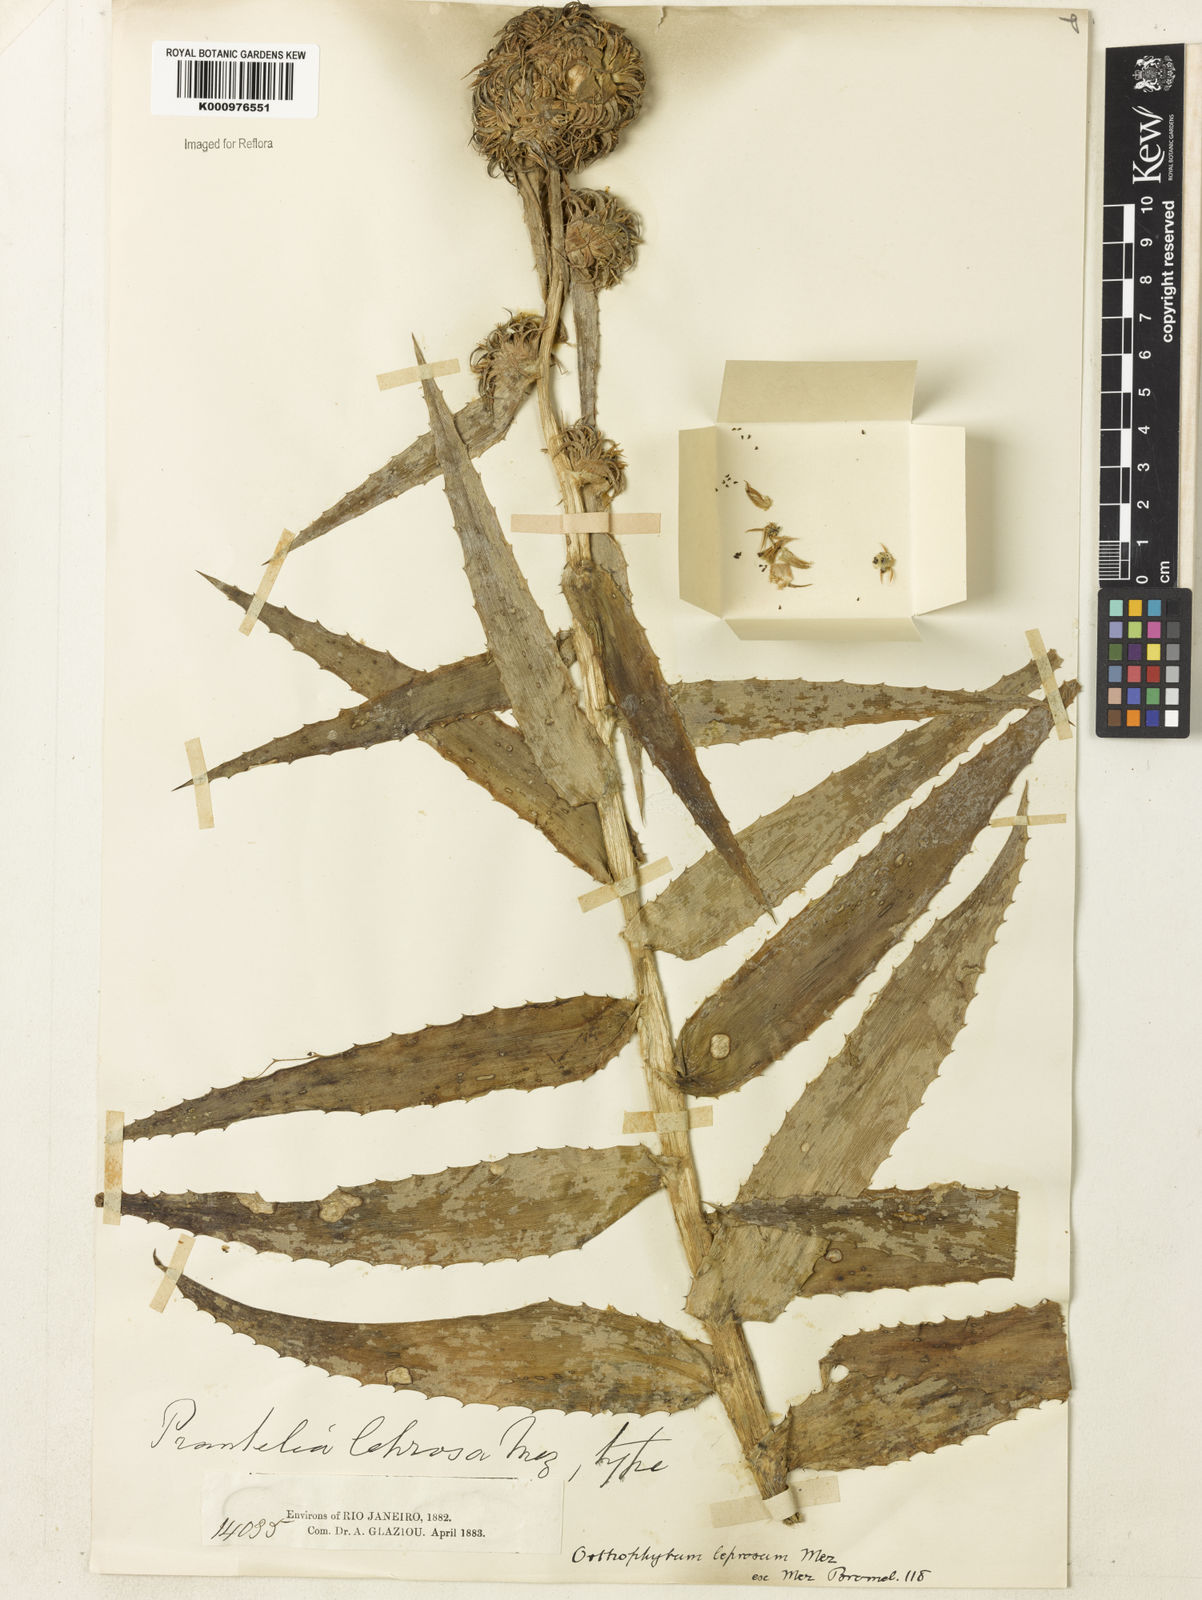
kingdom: Plantae
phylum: Tracheophyta
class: Liliopsida
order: Poales
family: Bromeliaceae
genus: Orthophytum
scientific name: Orthophytum leprosum
